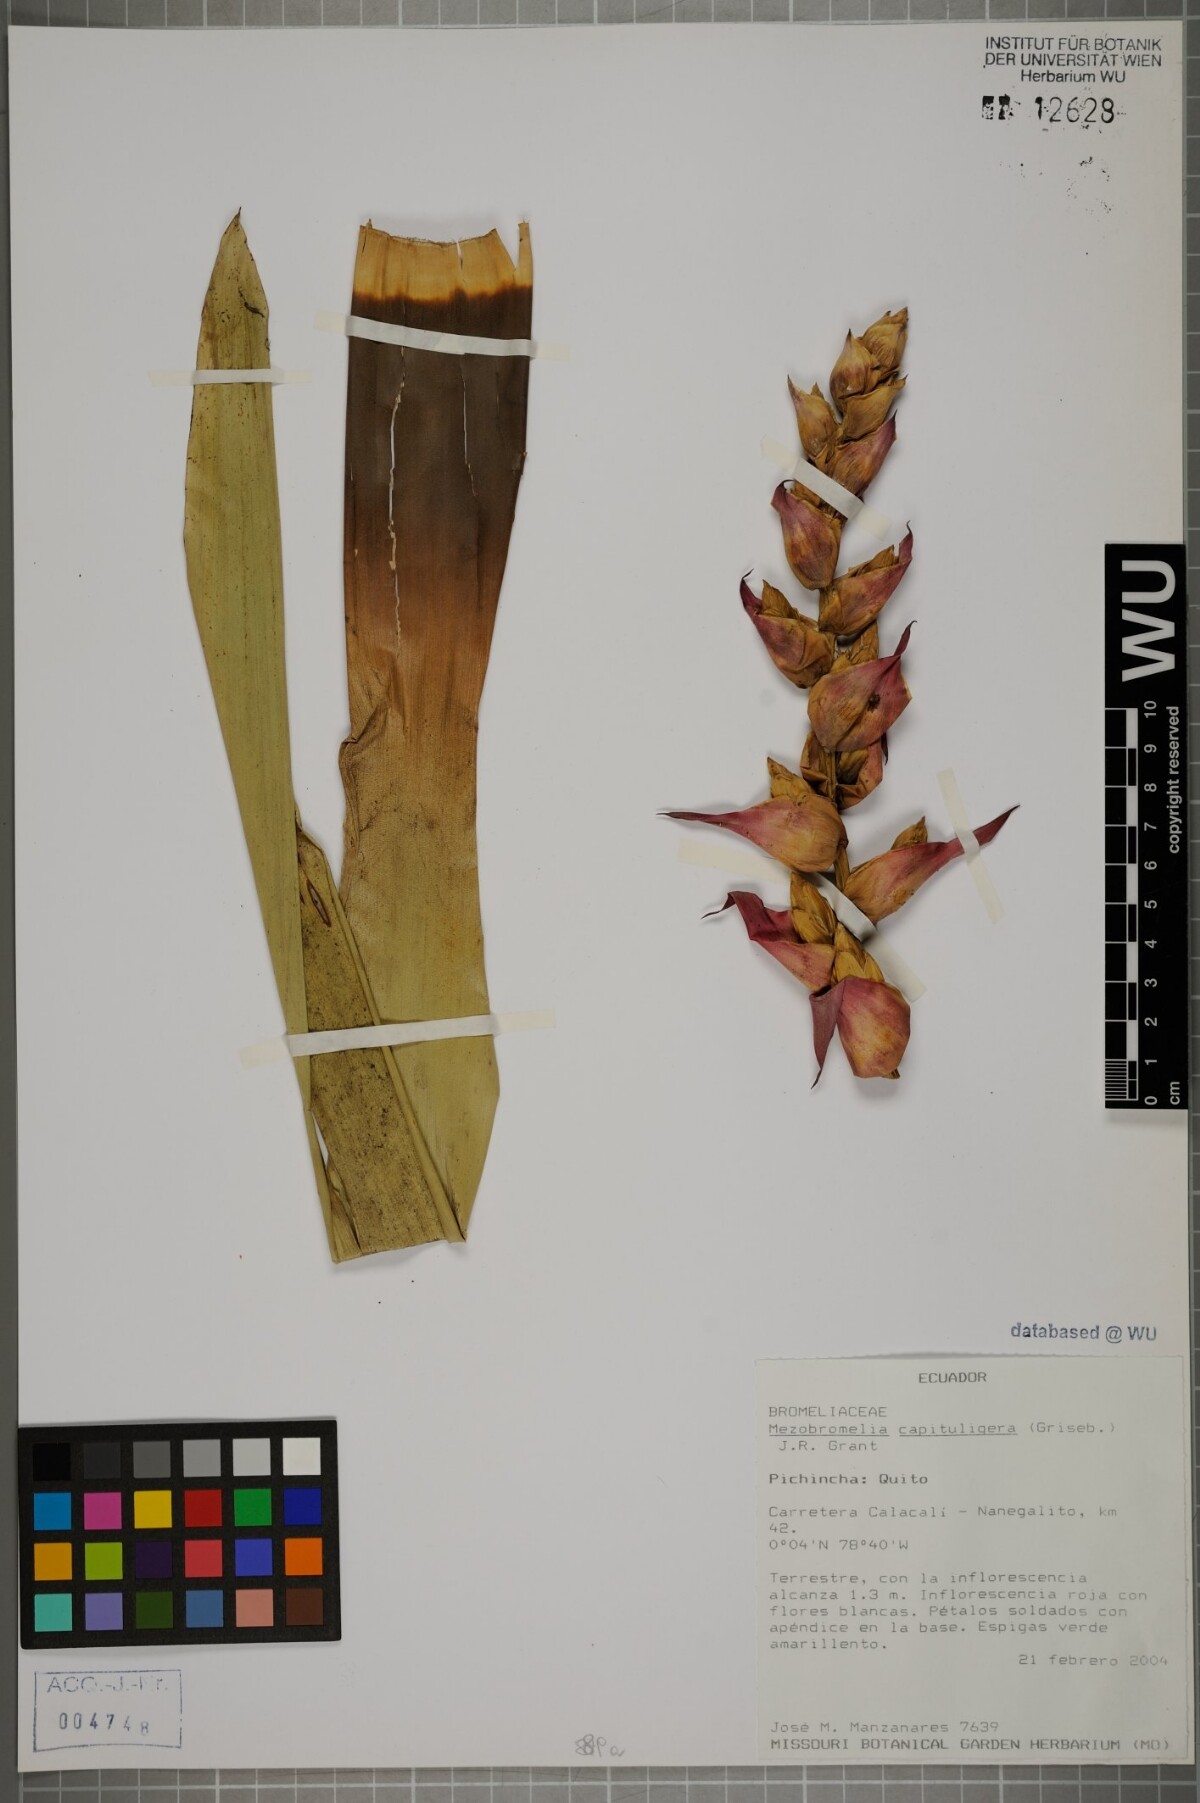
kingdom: Plantae
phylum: Tracheophyta
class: Liliopsida
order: Poales
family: Bromeliaceae
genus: Cipuropsis
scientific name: Cipuropsis capituligera
